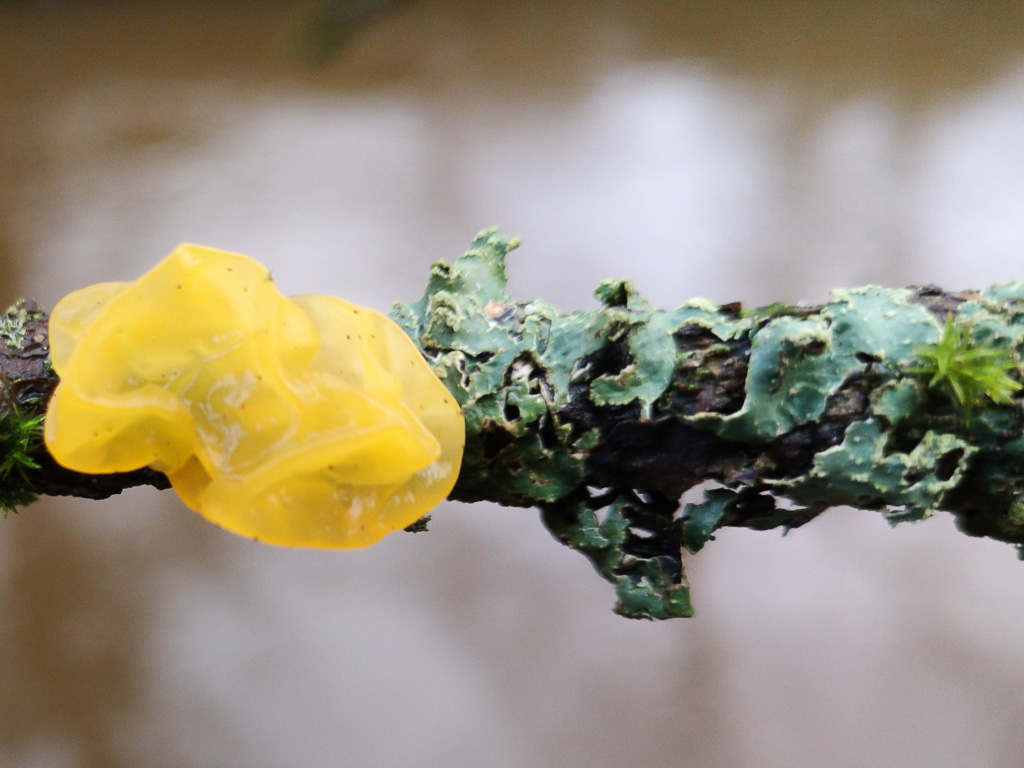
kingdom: Fungi
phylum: Basidiomycota
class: Tremellomycetes
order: Tremellales
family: Tremellaceae
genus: Tremella
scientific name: Tremella mesenterica
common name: gul bævresvamp
